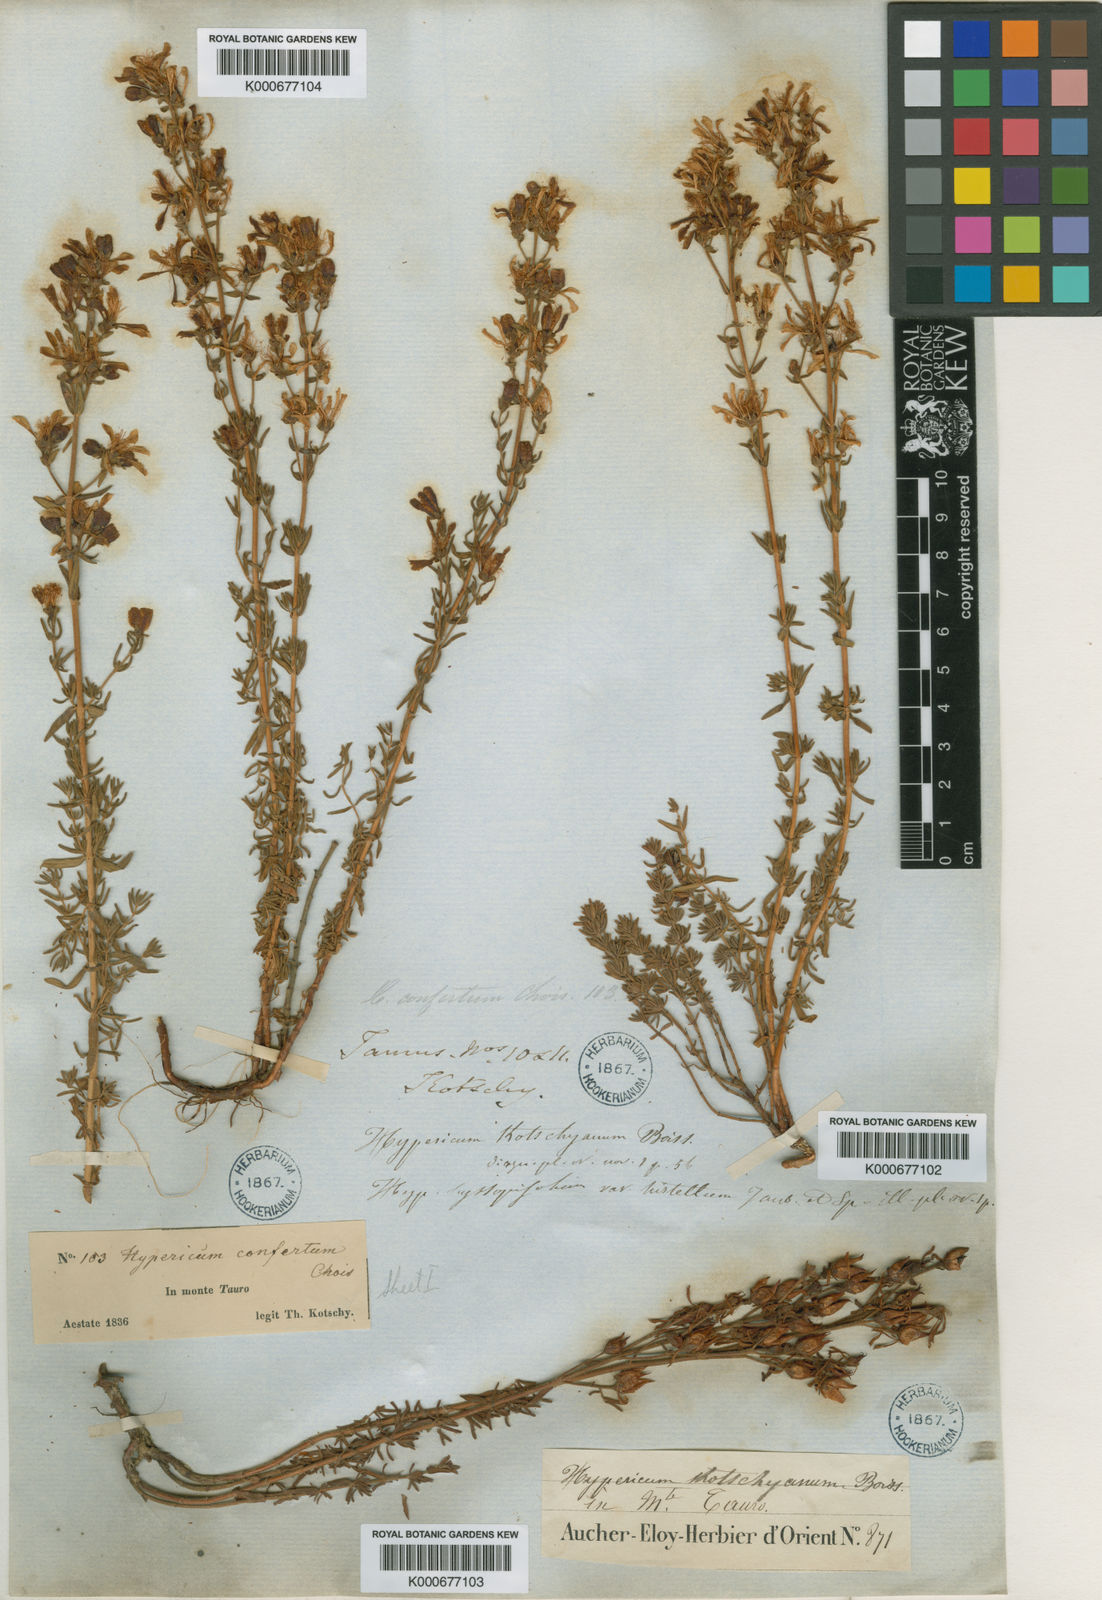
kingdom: Plantae
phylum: Tracheophyta
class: Magnoliopsida
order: Malpighiales
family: Hypericaceae
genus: Hypericum
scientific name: Hypericum kotschyanum
